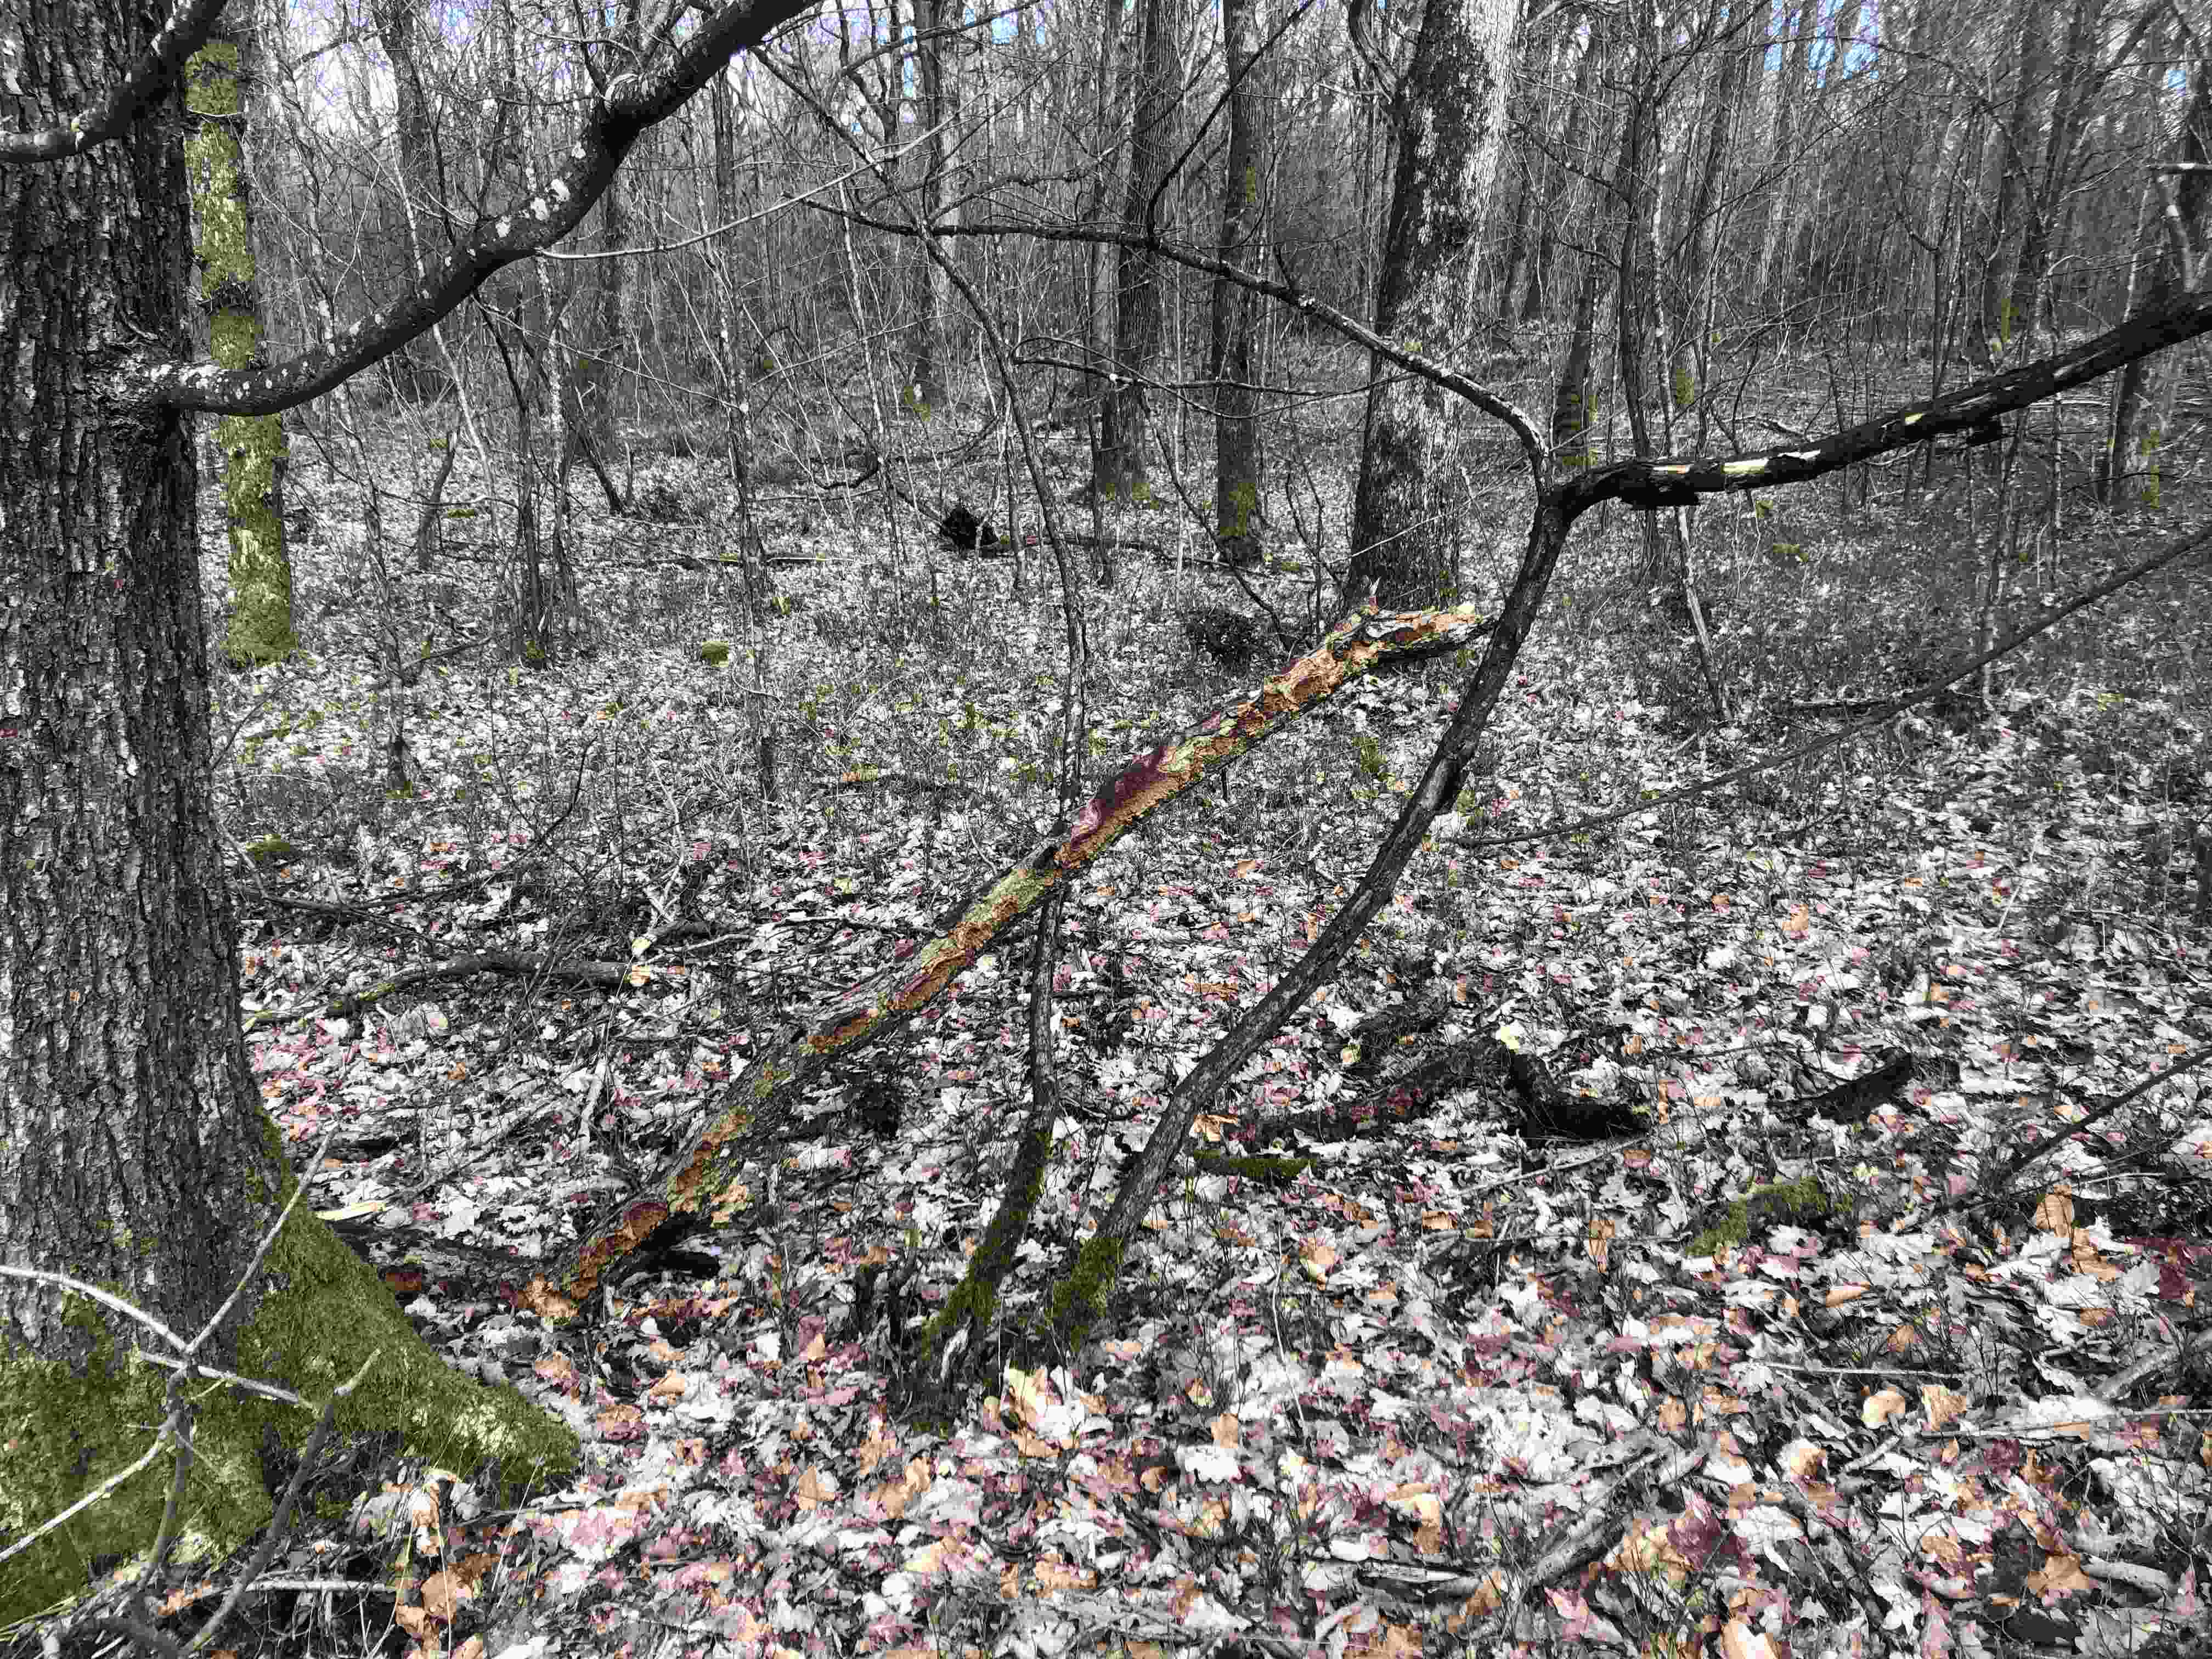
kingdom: Fungi
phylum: Basidiomycota
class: Agaricomycetes
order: Hymenochaetales
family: Hymenochaetaceae
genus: Fuscoporia
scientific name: Fuscoporia ferrea
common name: skorpe-ildporesvamp
